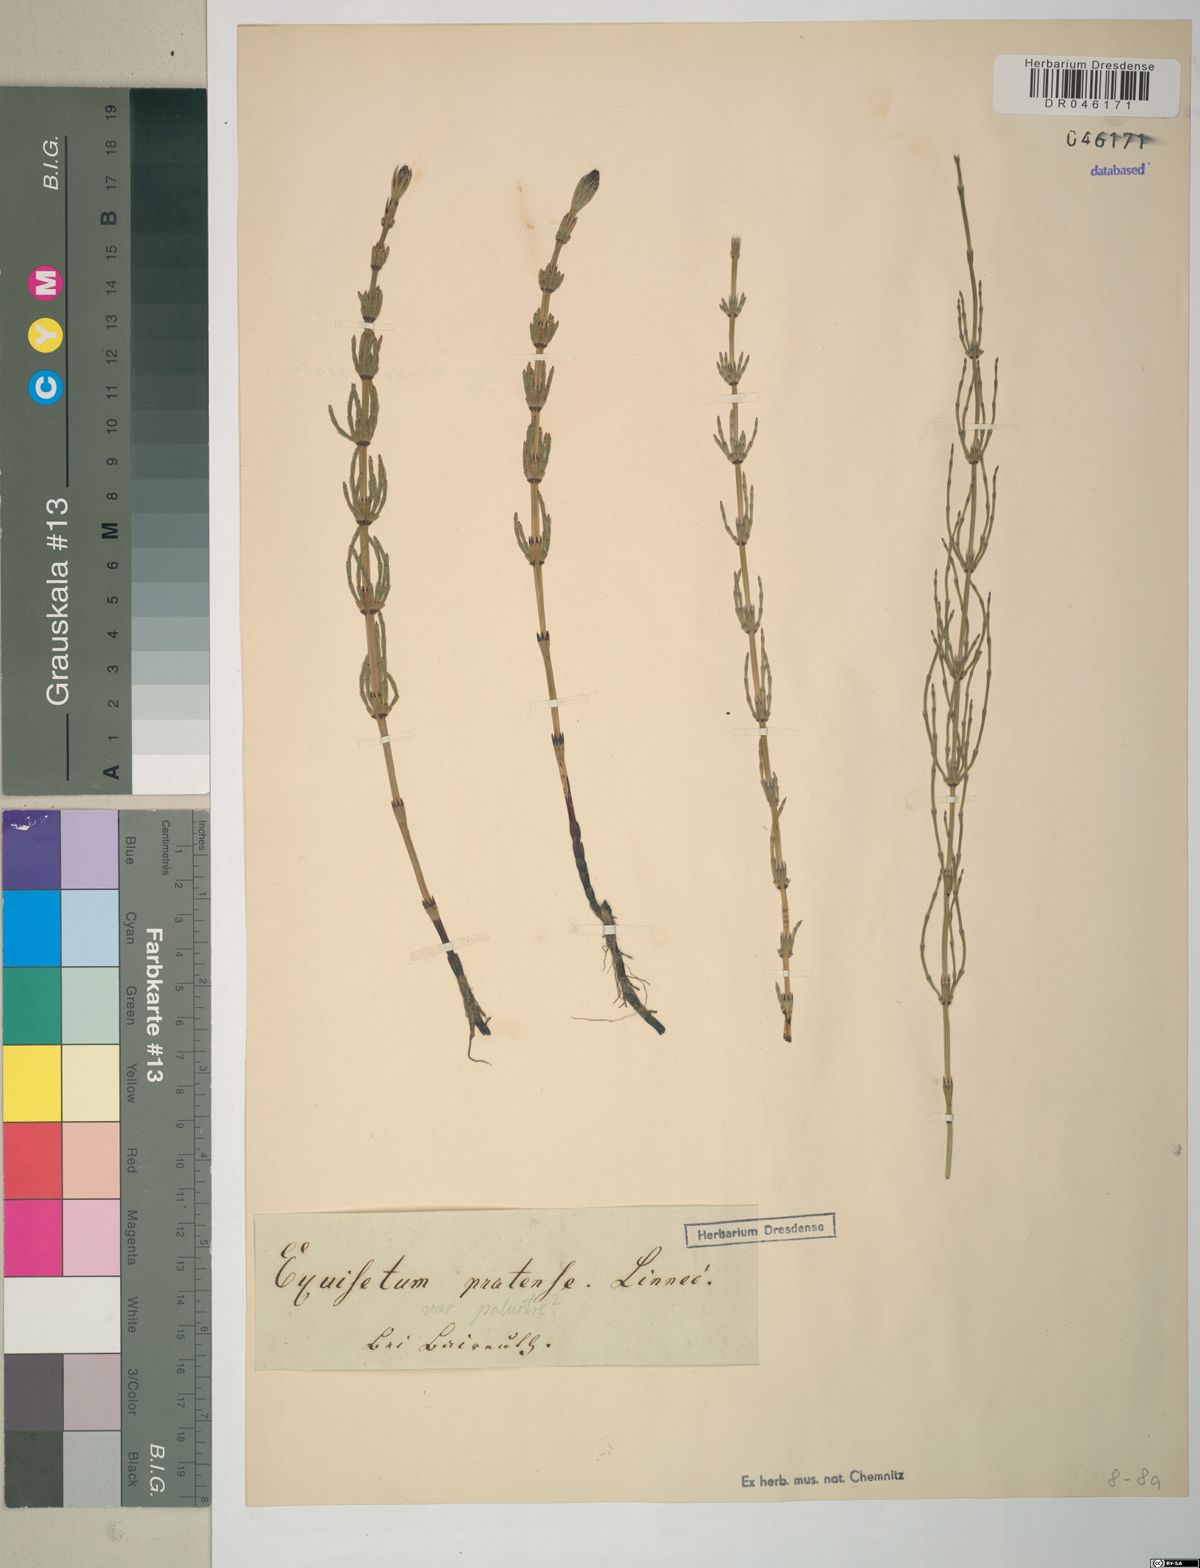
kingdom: Plantae
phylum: Tracheophyta
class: Polypodiopsida
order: Equisetales
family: Equisetaceae
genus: Equisetum
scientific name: Equisetum pratense
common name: Meadow horsetail
